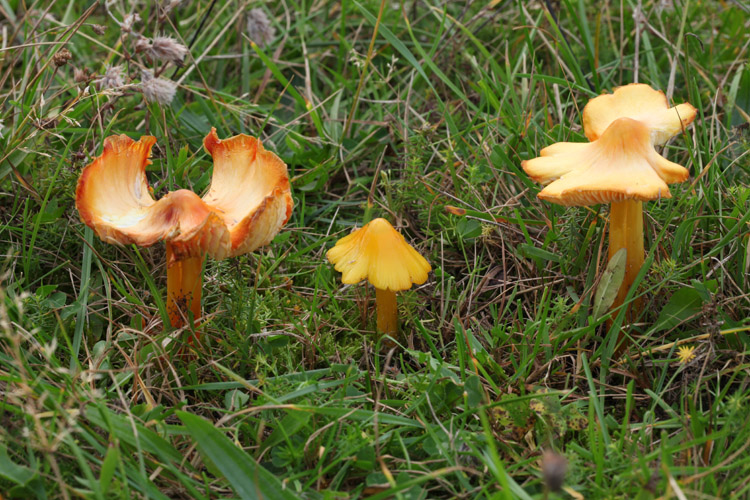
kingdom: Fungi
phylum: Basidiomycota
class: Agaricomycetes
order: Agaricales
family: Hygrophoraceae
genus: Hygrocybe
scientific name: Hygrocybe acutoconica
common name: spidspuklet vokshat
